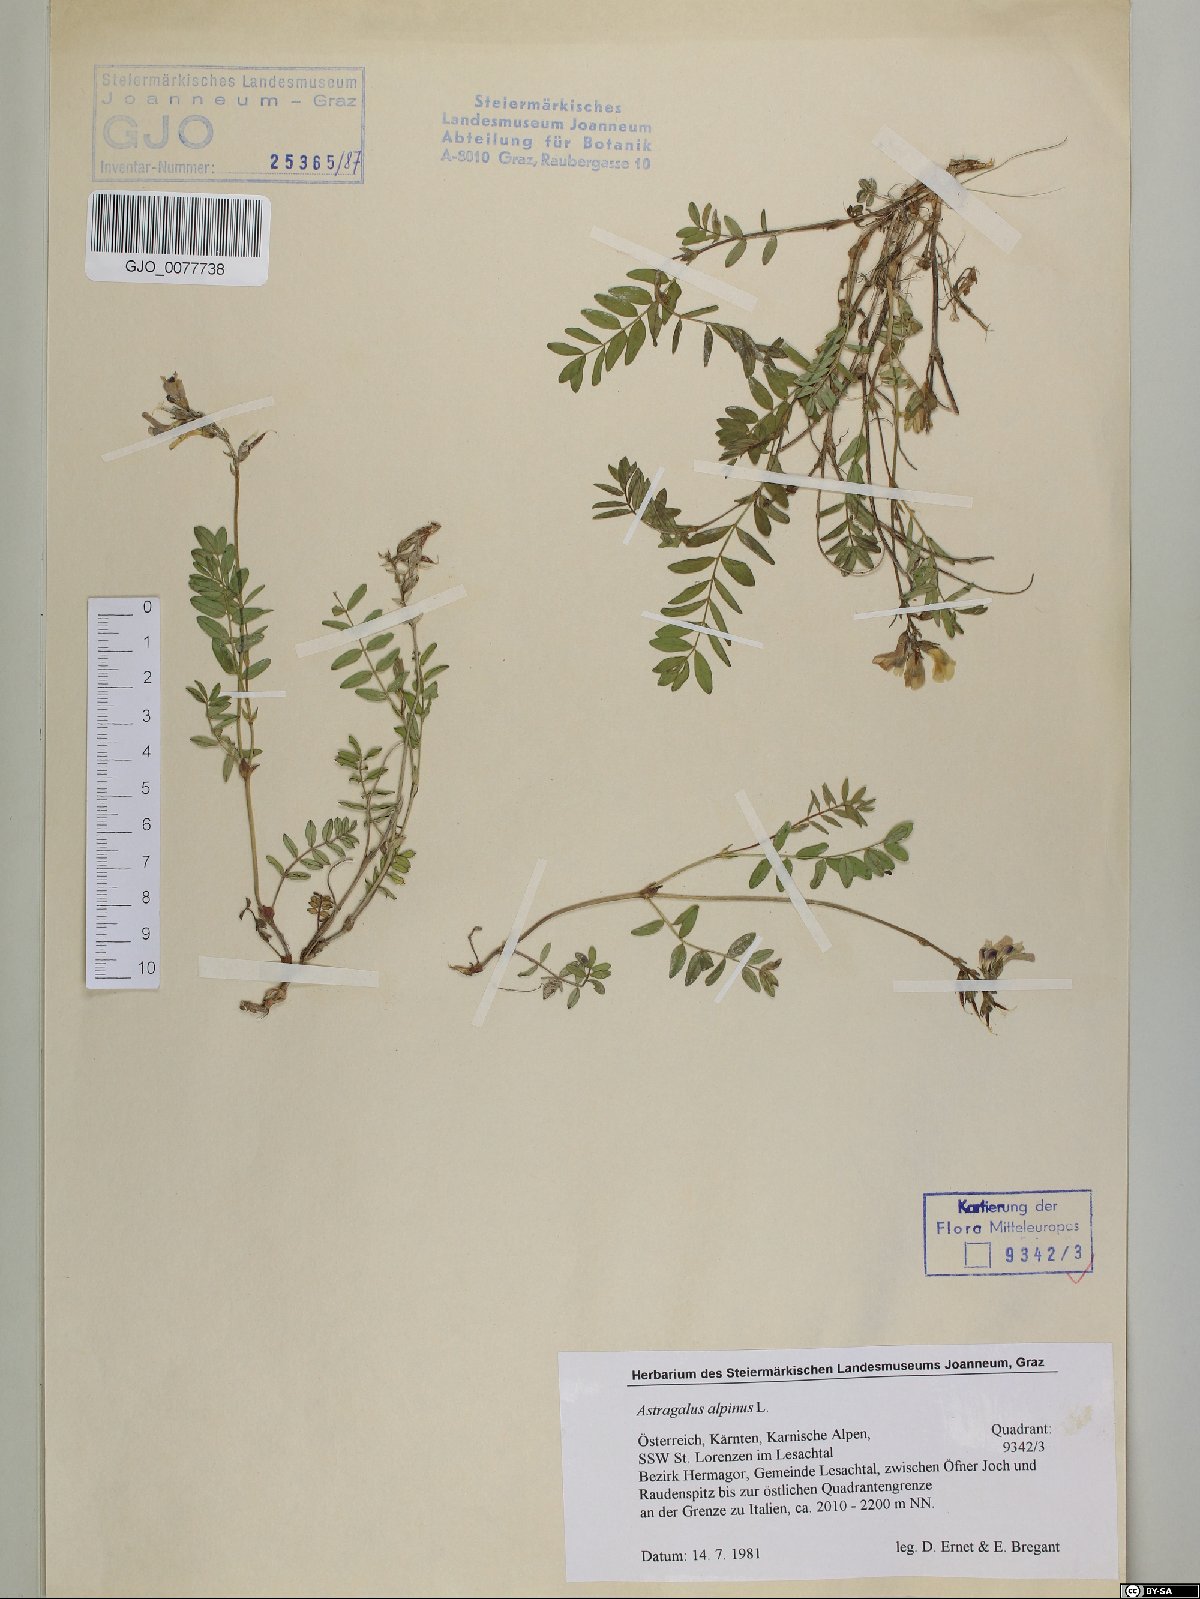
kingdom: Plantae
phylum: Tracheophyta
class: Magnoliopsida
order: Fabales
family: Fabaceae
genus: Astragalus
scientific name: Astragalus alpinus
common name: Alpine milk-vetch
